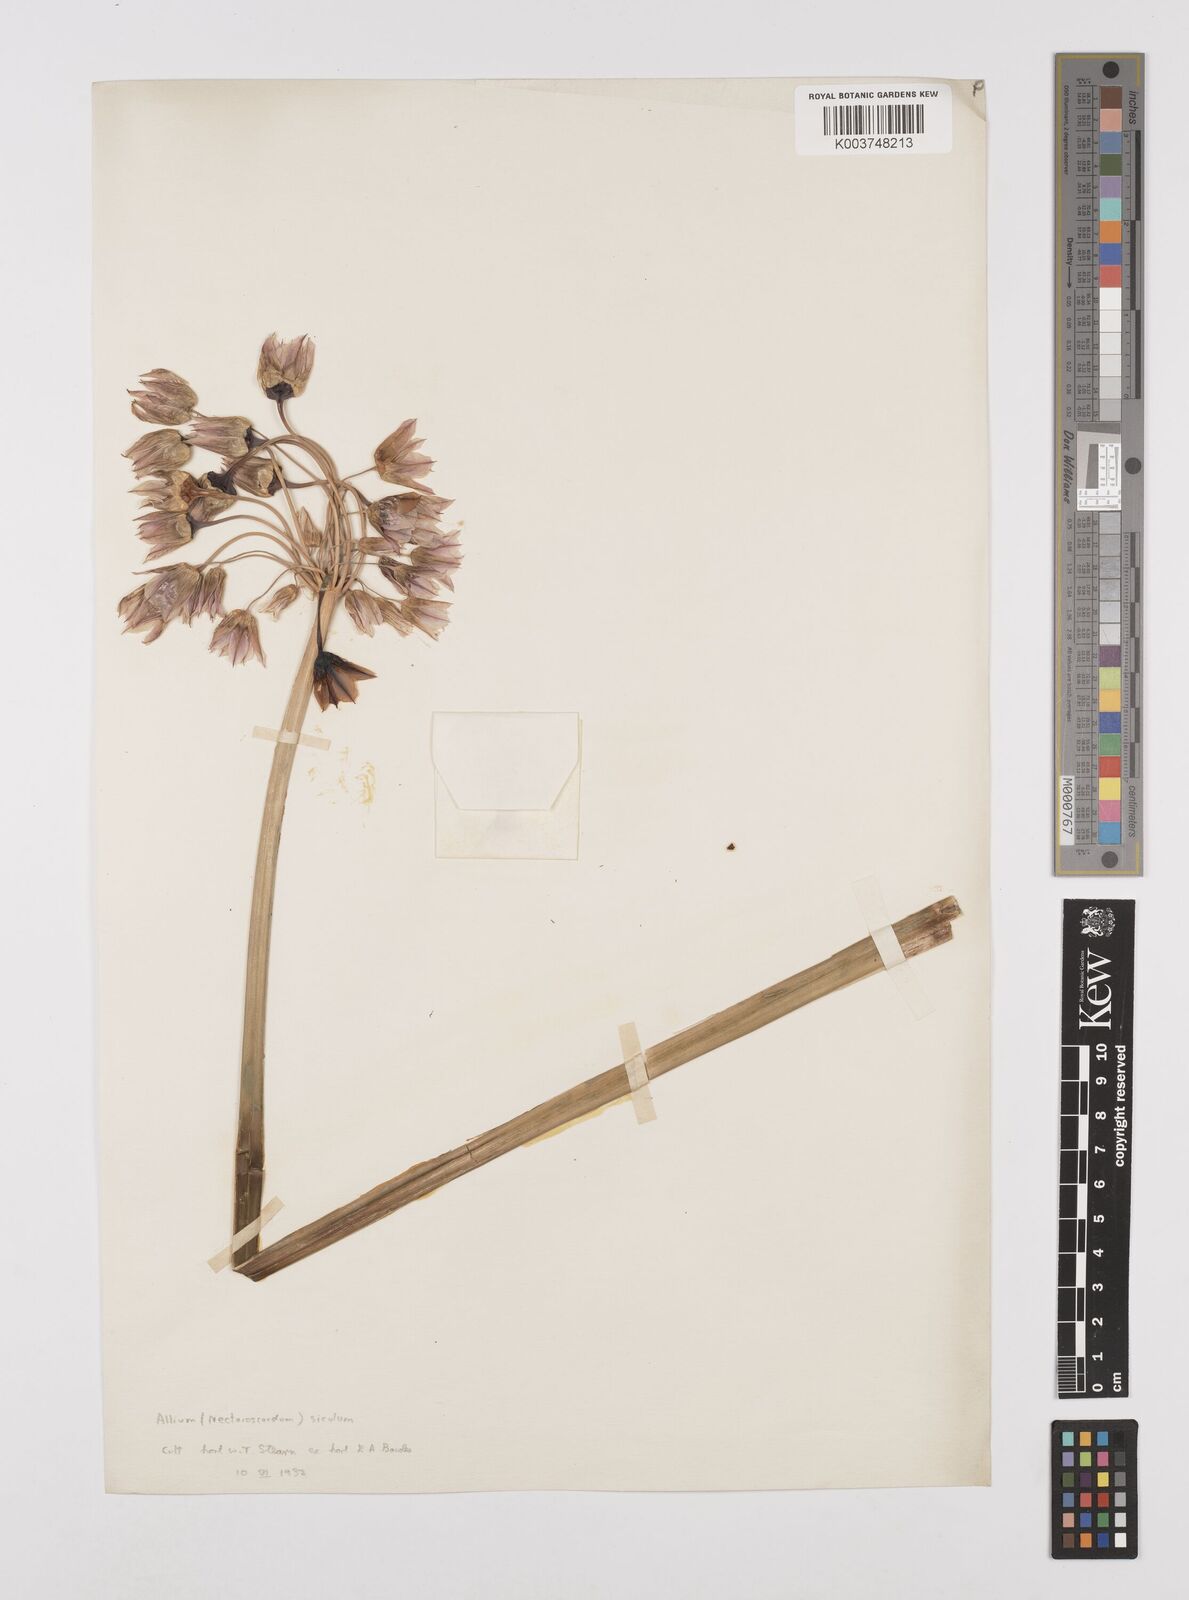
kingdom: Plantae
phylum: Tracheophyta
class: Liliopsida
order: Asparagales
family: Amaryllidaceae
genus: Allium
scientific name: Allium siculum
